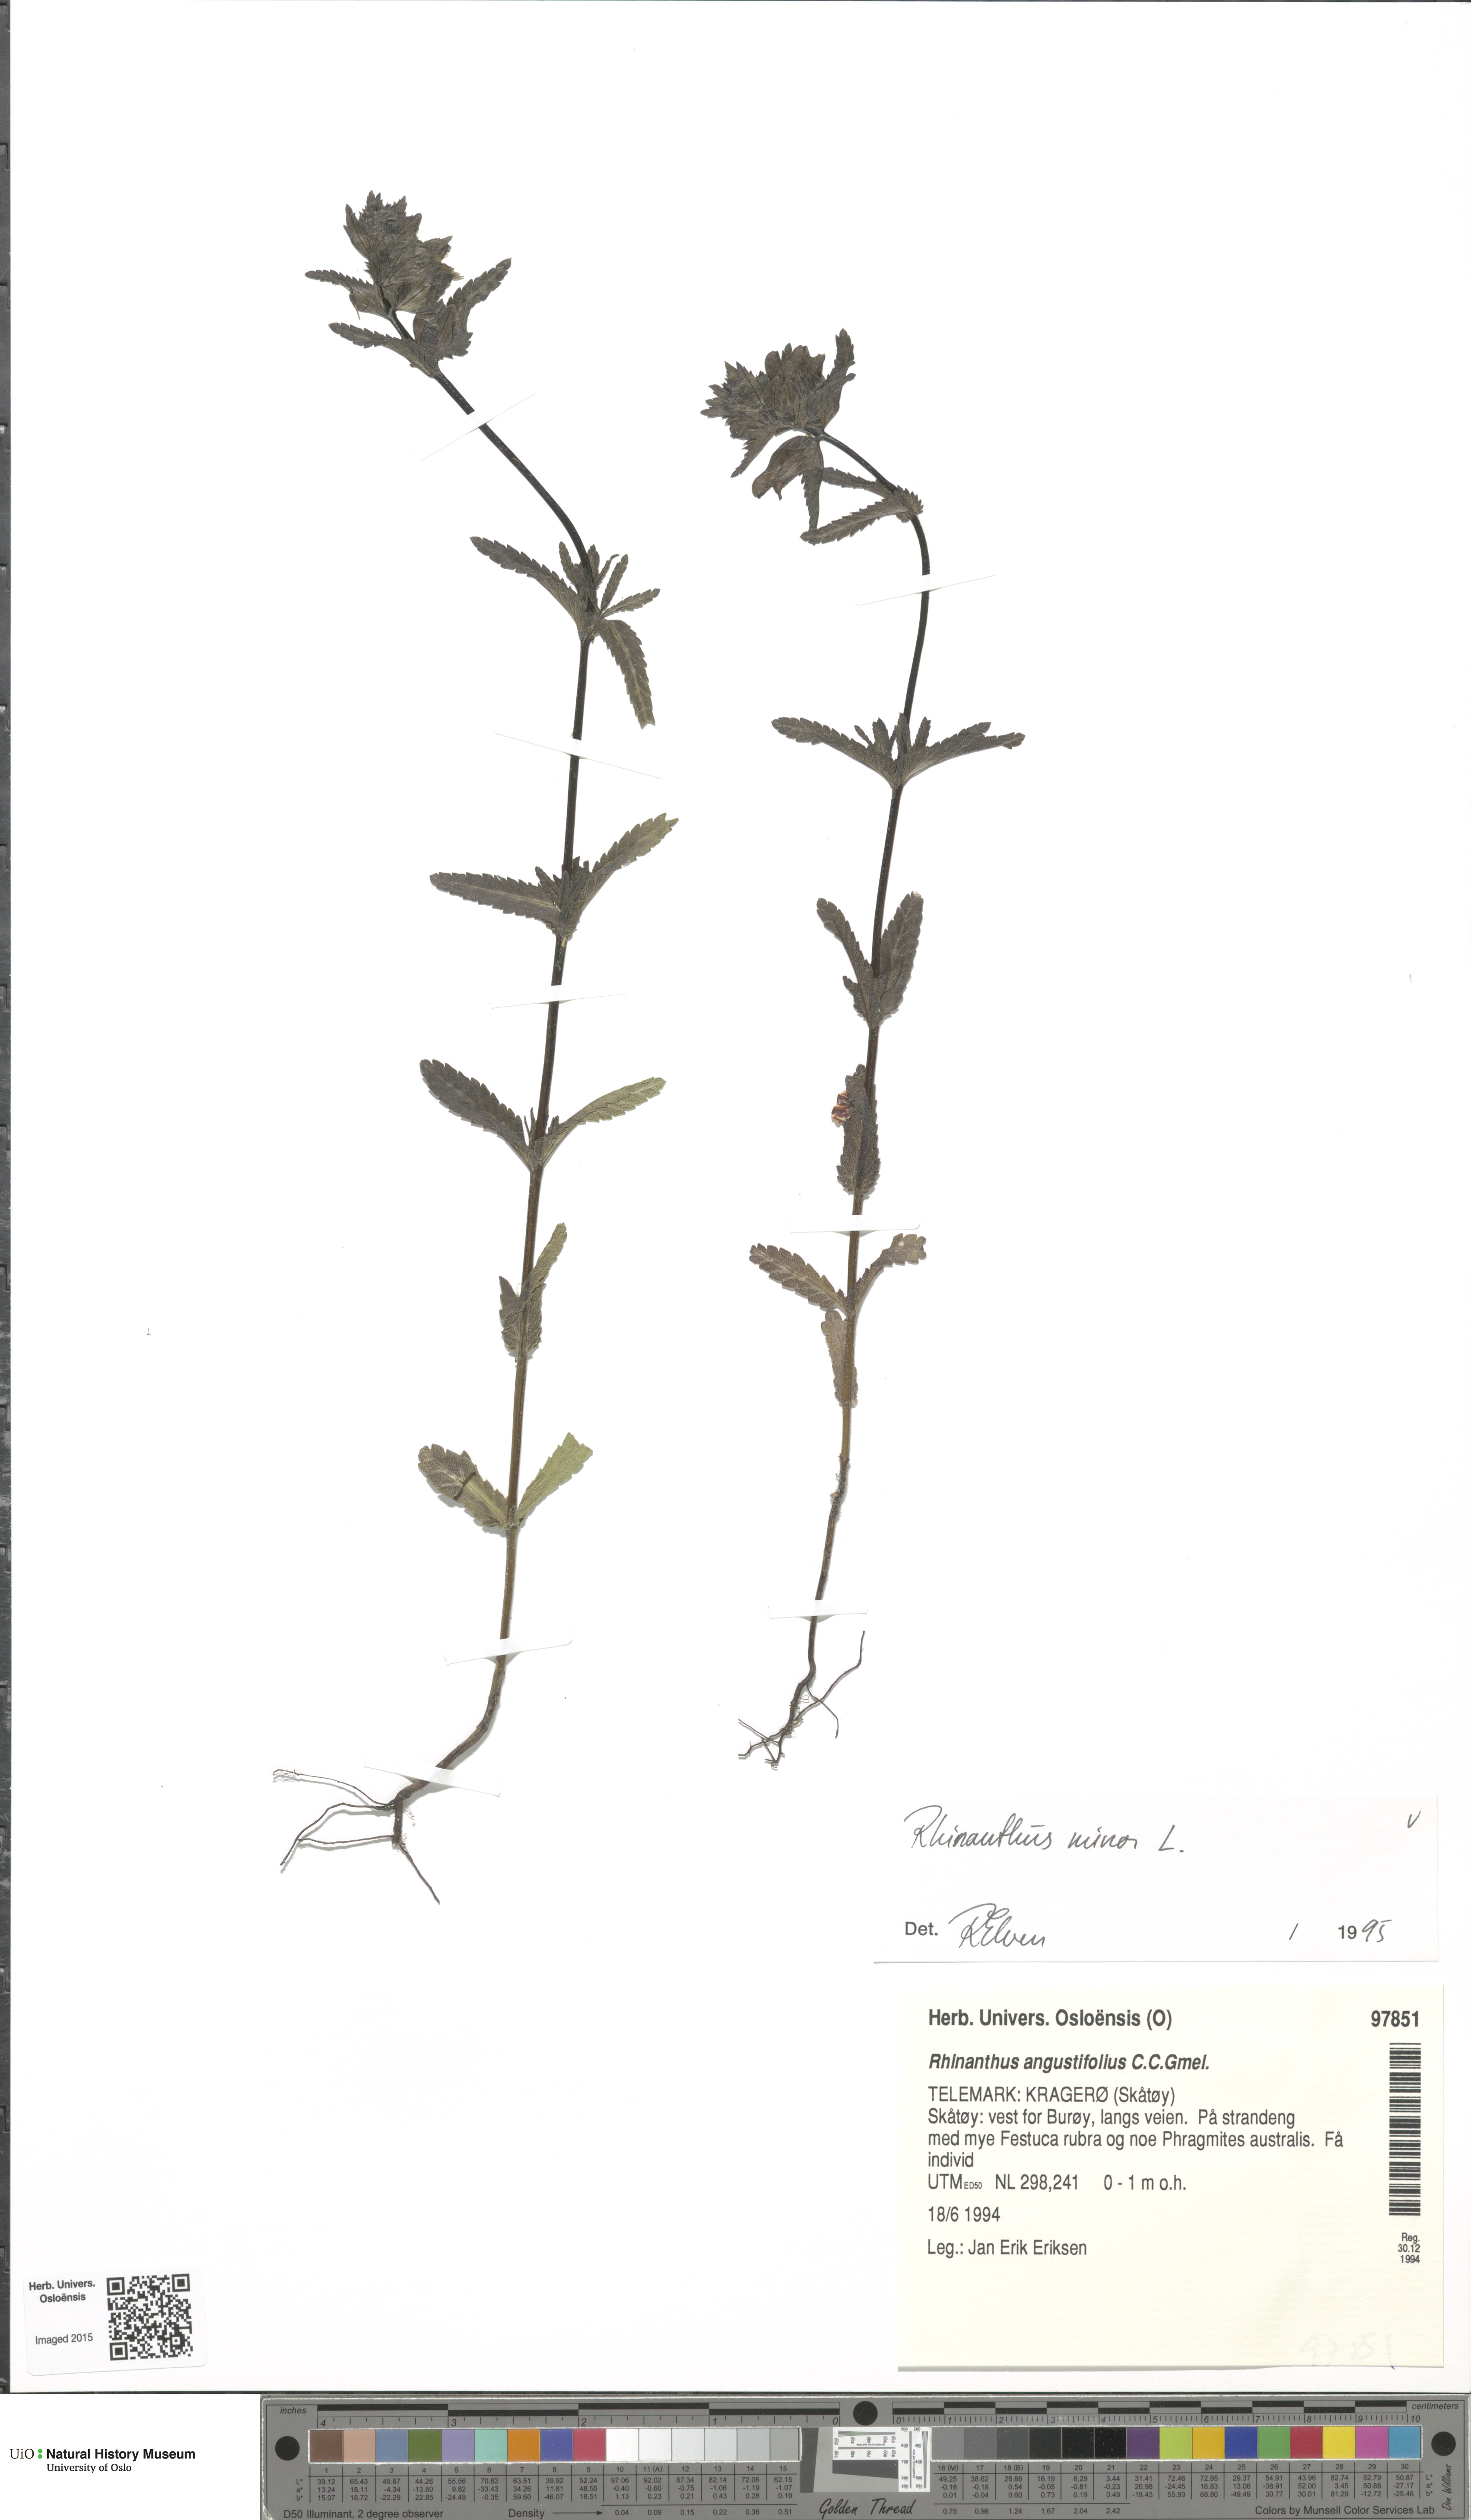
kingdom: Plantae
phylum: Tracheophyta
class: Magnoliopsida
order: Lamiales
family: Orobanchaceae
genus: Rhinanthus
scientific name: Rhinanthus minor
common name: Yellow-rattle
